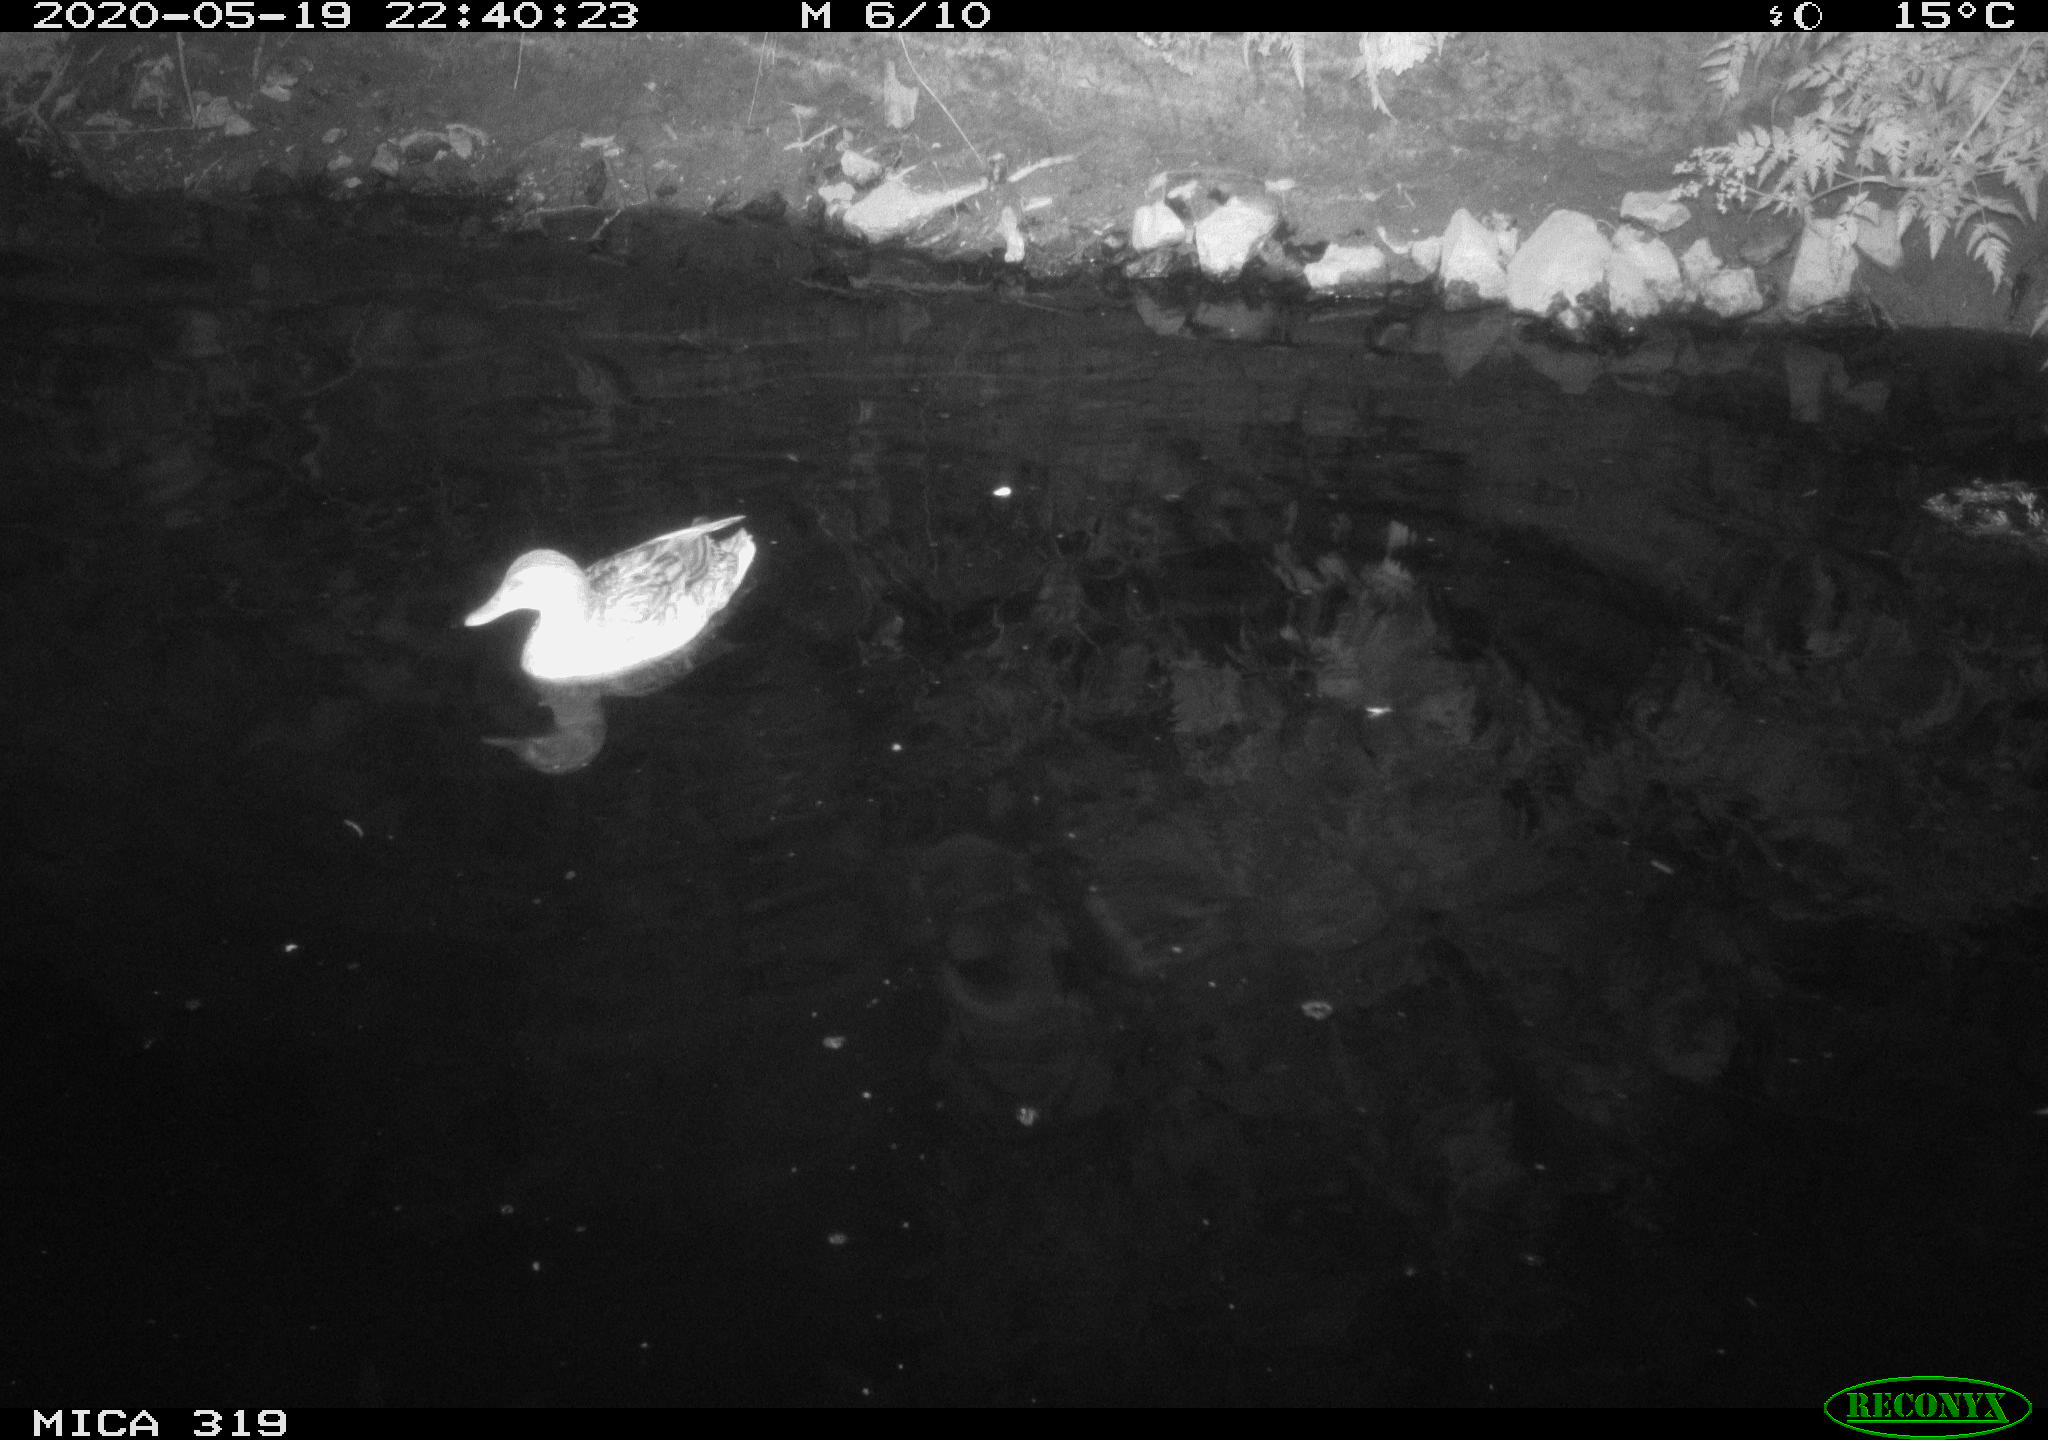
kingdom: Animalia
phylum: Chordata
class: Aves
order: Anseriformes
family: Anatidae
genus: Anas
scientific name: Anas platyrhynchos
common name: Mallard
